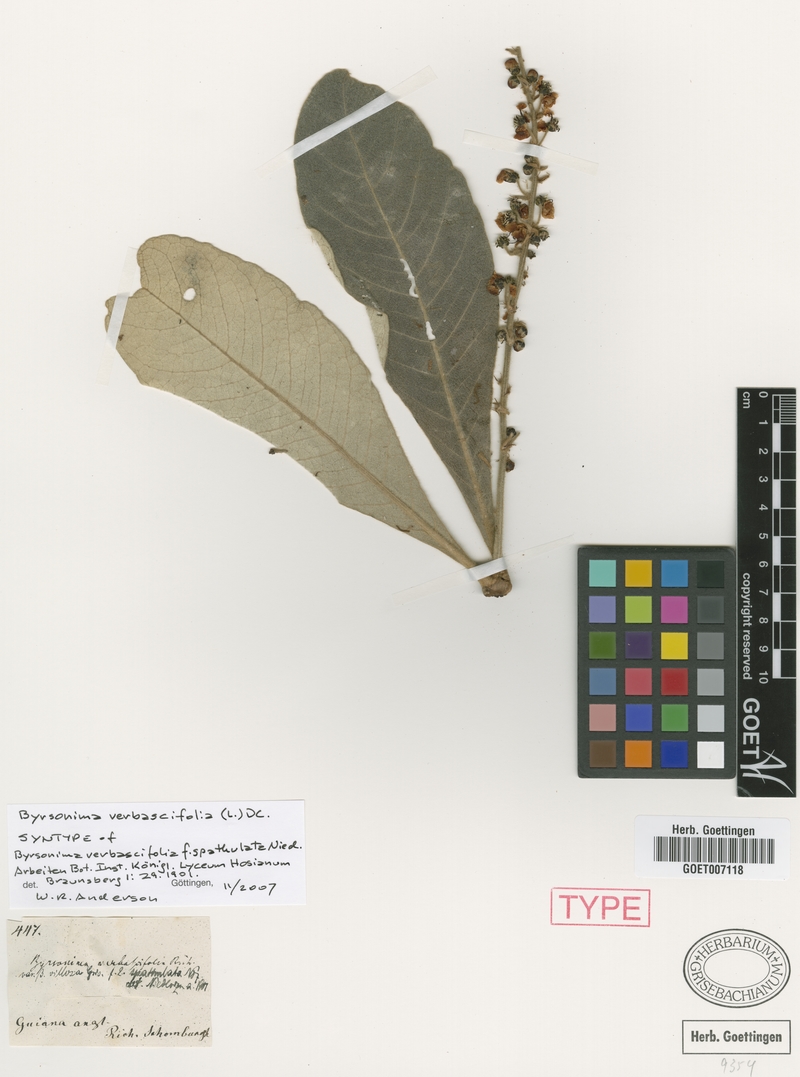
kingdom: Plantae
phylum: Tracheophyta
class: Magnoliopsida
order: Malpighiales
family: Malpighiaceae
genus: Byrsonima
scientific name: Byrsonima verbascifolia
